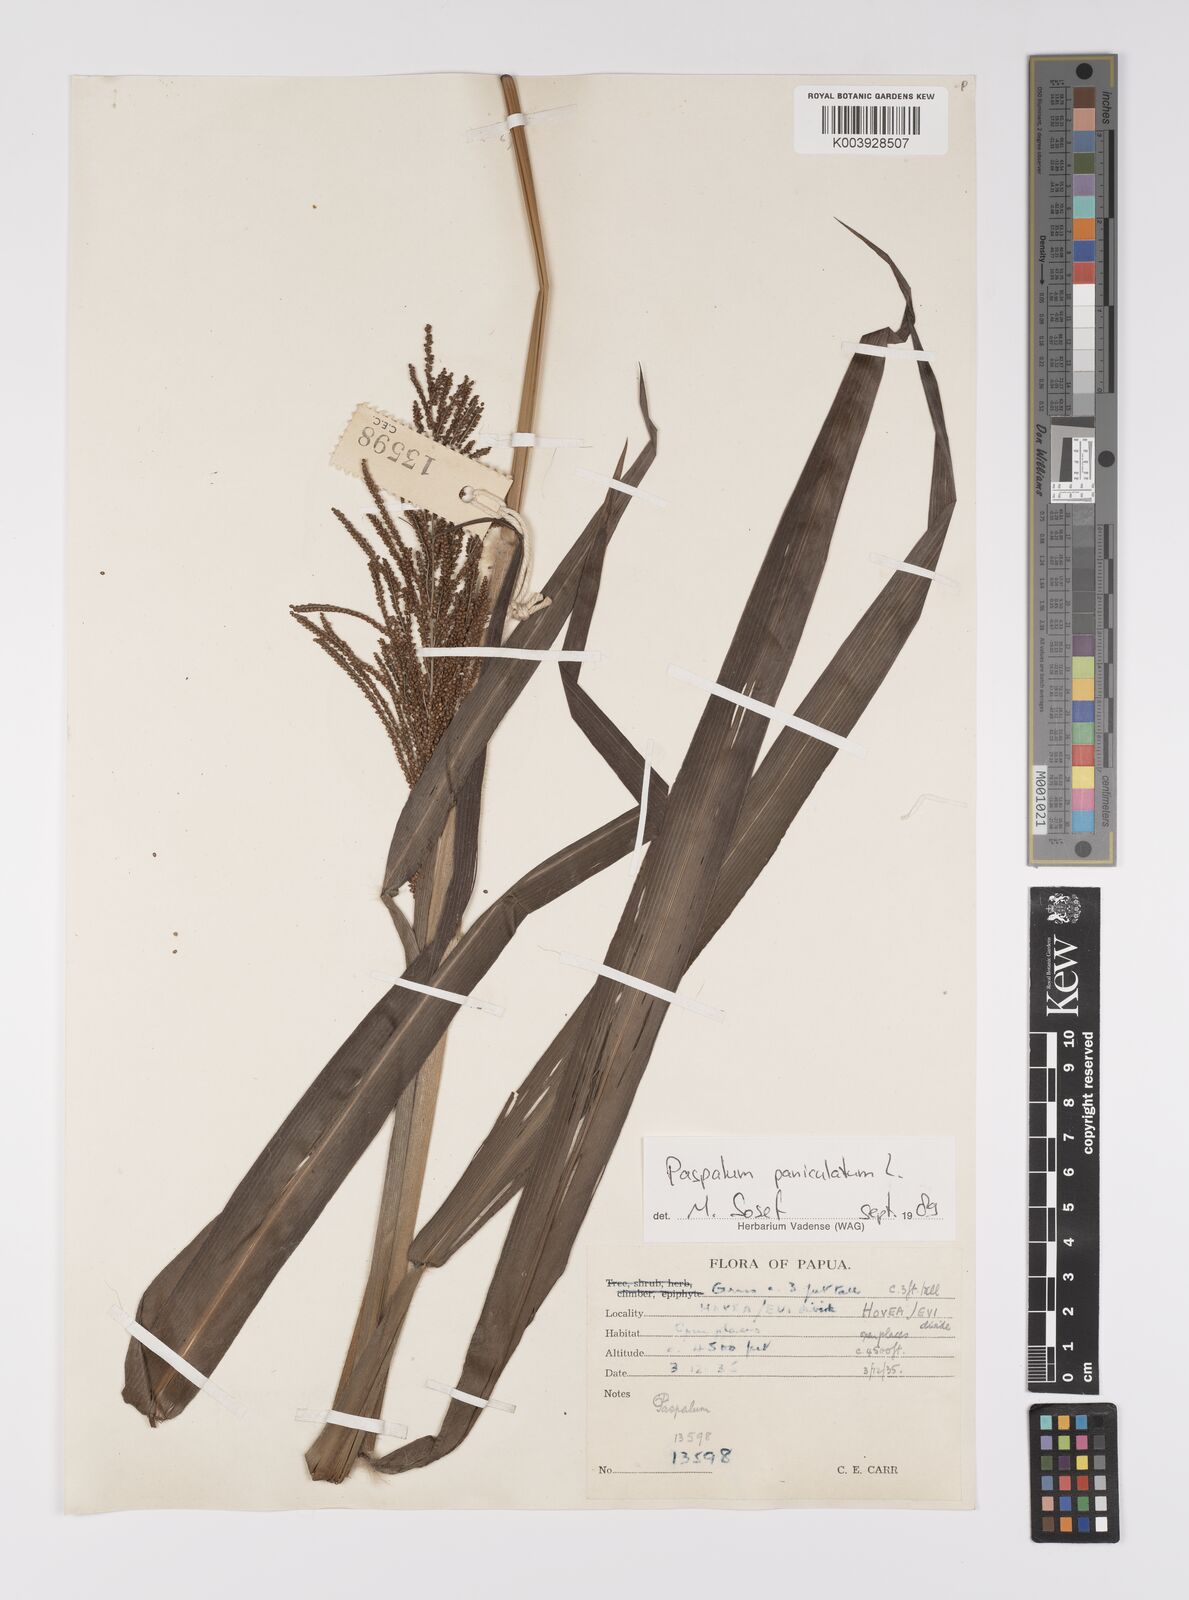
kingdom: Plantae
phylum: Tracheophyta
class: Liliopsida
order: Poales
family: Poaceae
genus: Paspalum
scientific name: Paspalum paniculatum
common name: Arrocillo
